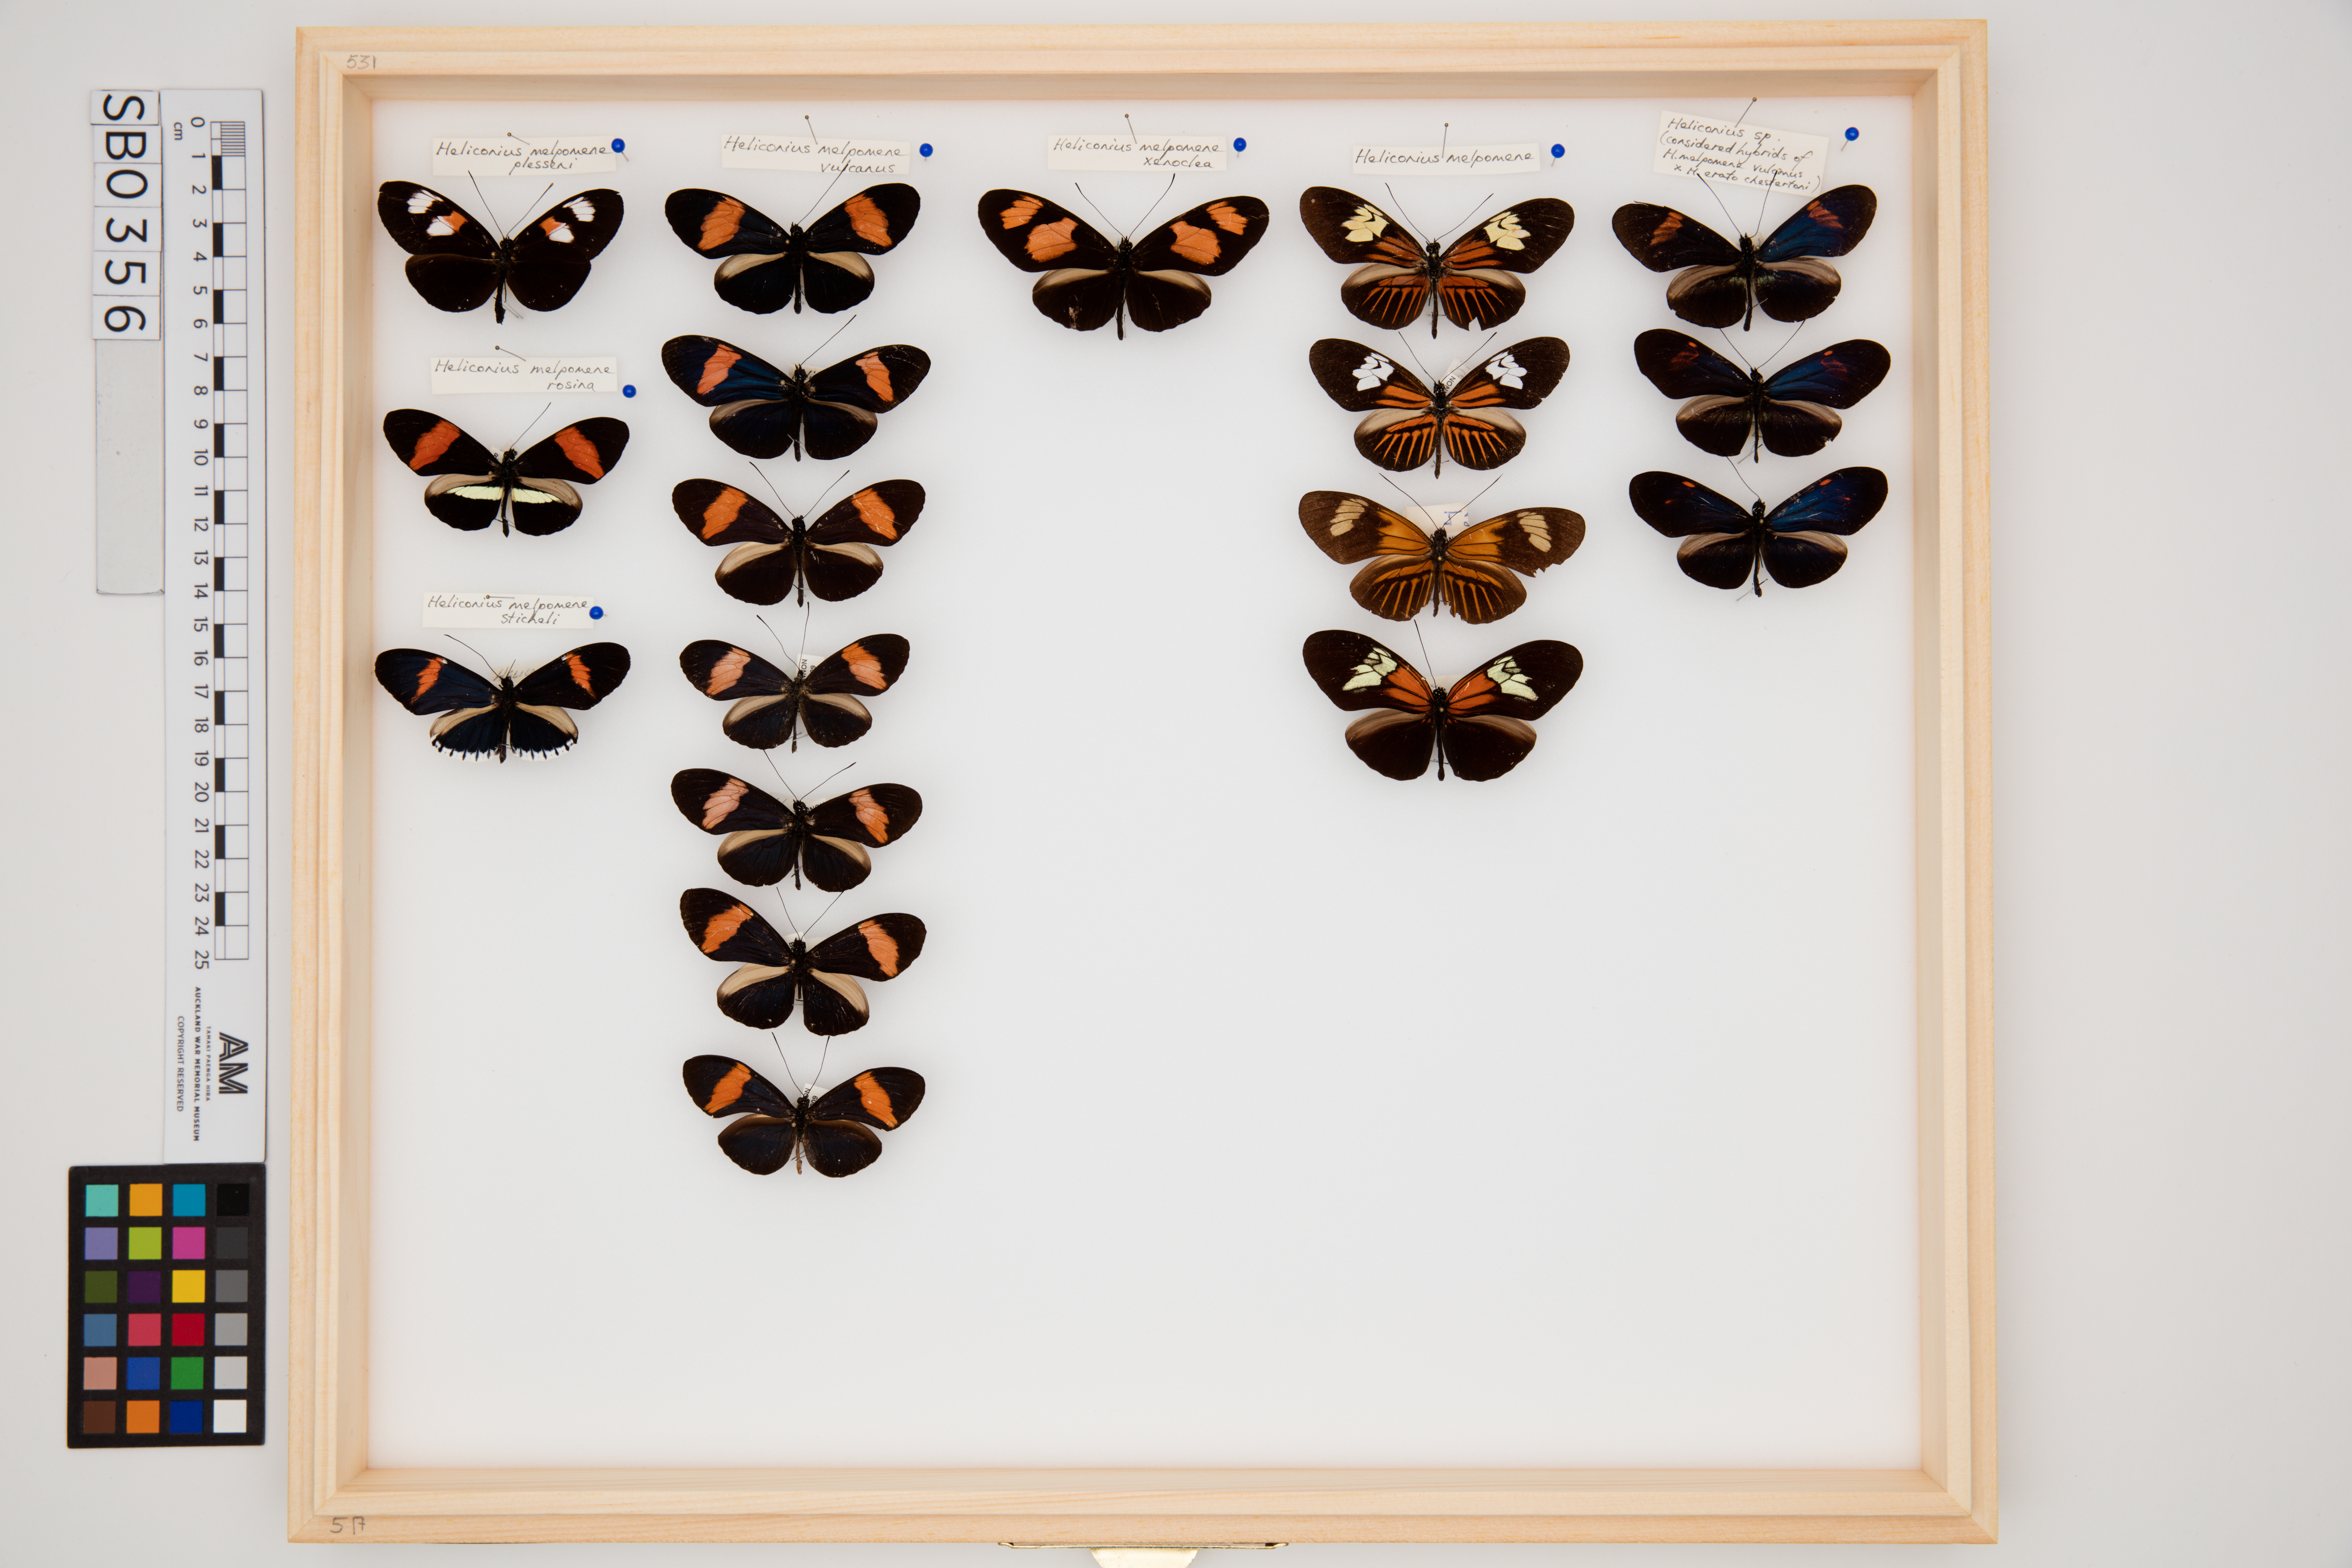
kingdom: Animalia
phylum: Arthropoda
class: Insecta
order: Lepidoptera
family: Nymphalidae
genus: Heliconius
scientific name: Heliconius melpomene
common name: Postman
